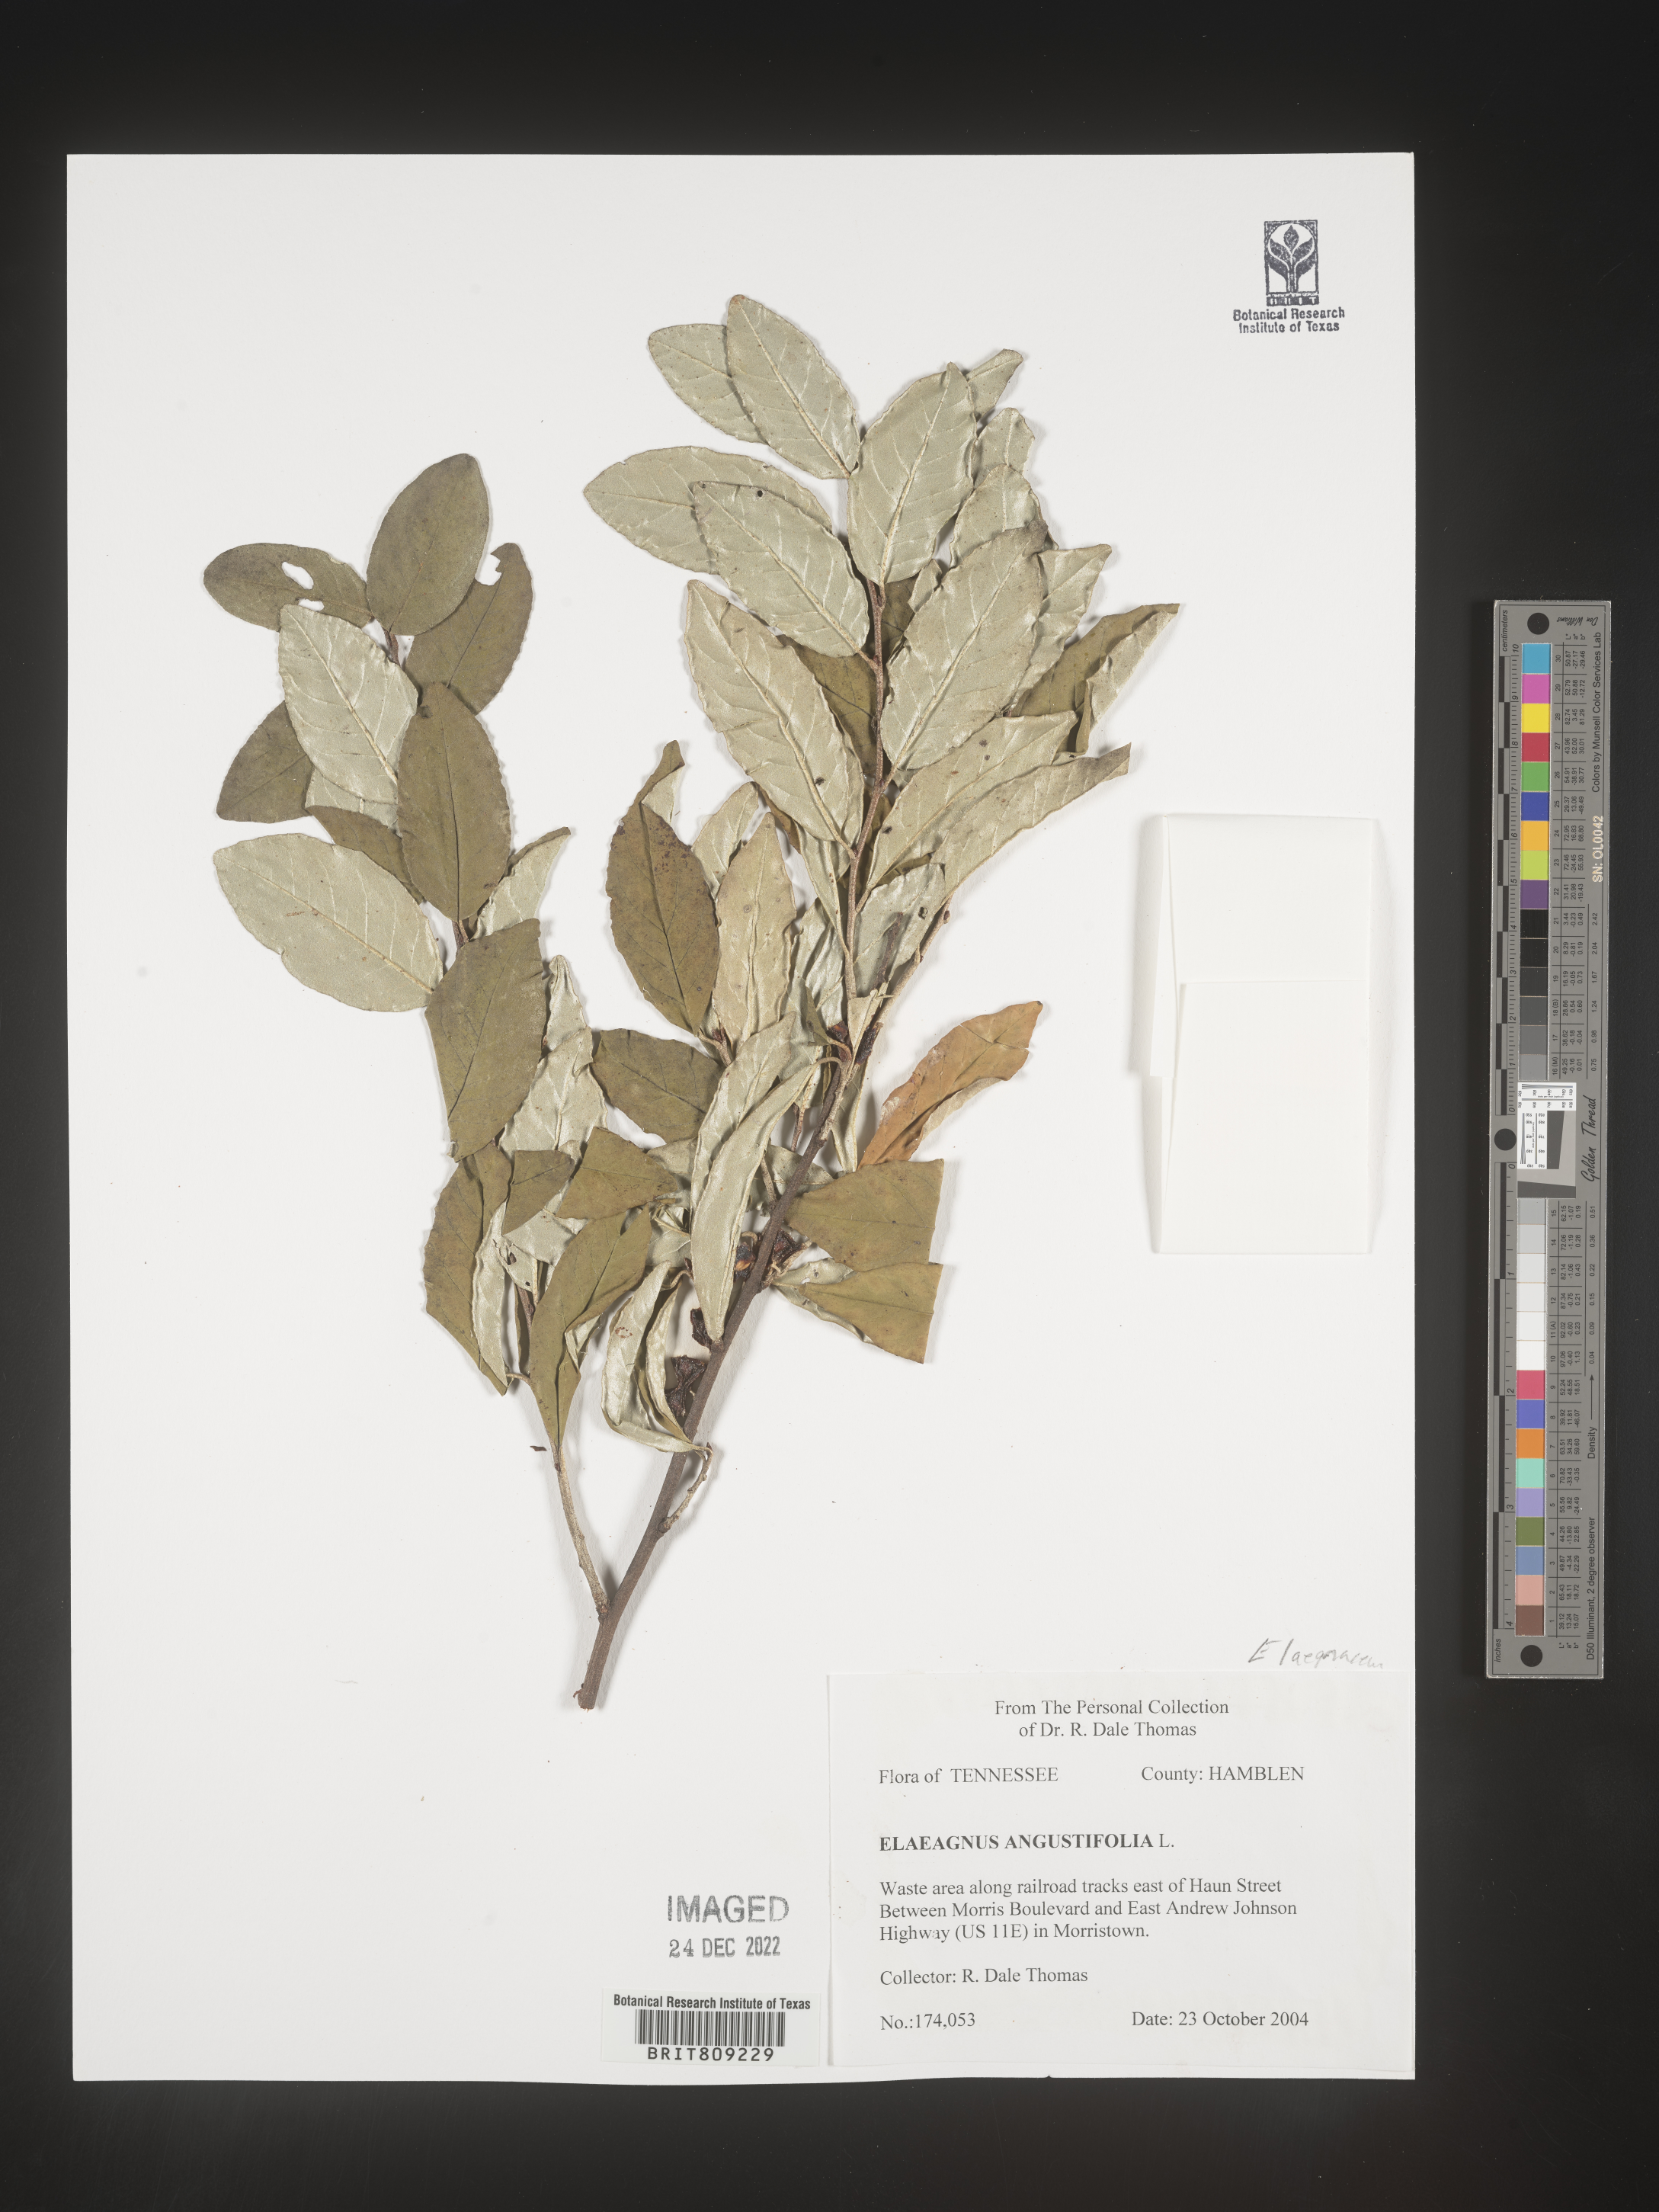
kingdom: Plantae
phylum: Tracheophyta
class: Magnoliopsida
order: Rosales
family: Elaeagnaceae
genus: Elaeagnus
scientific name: Elaeagnus angustifolia
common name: Russian olive
